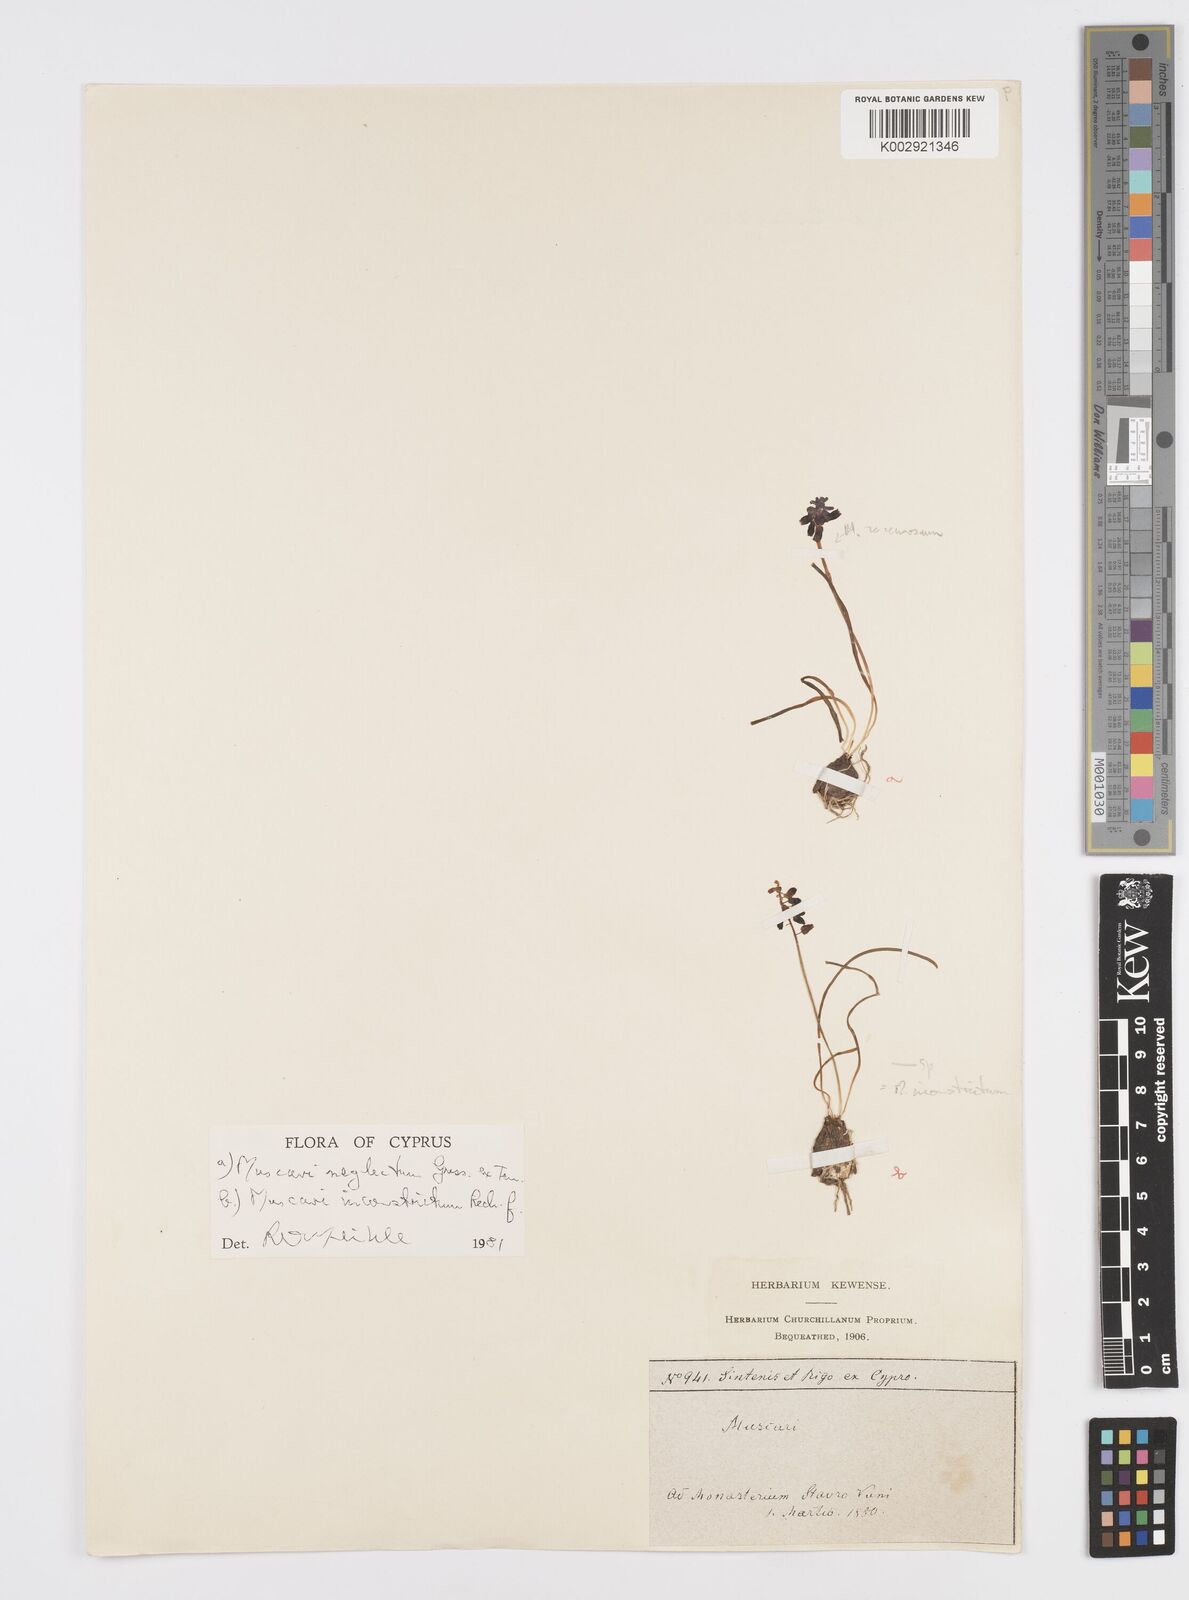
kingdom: Plantae
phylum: Tracheophyta
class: Liliopsida
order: Asparagales
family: Asparagaceae
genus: Muscari
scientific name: Muscari inconstrictum
